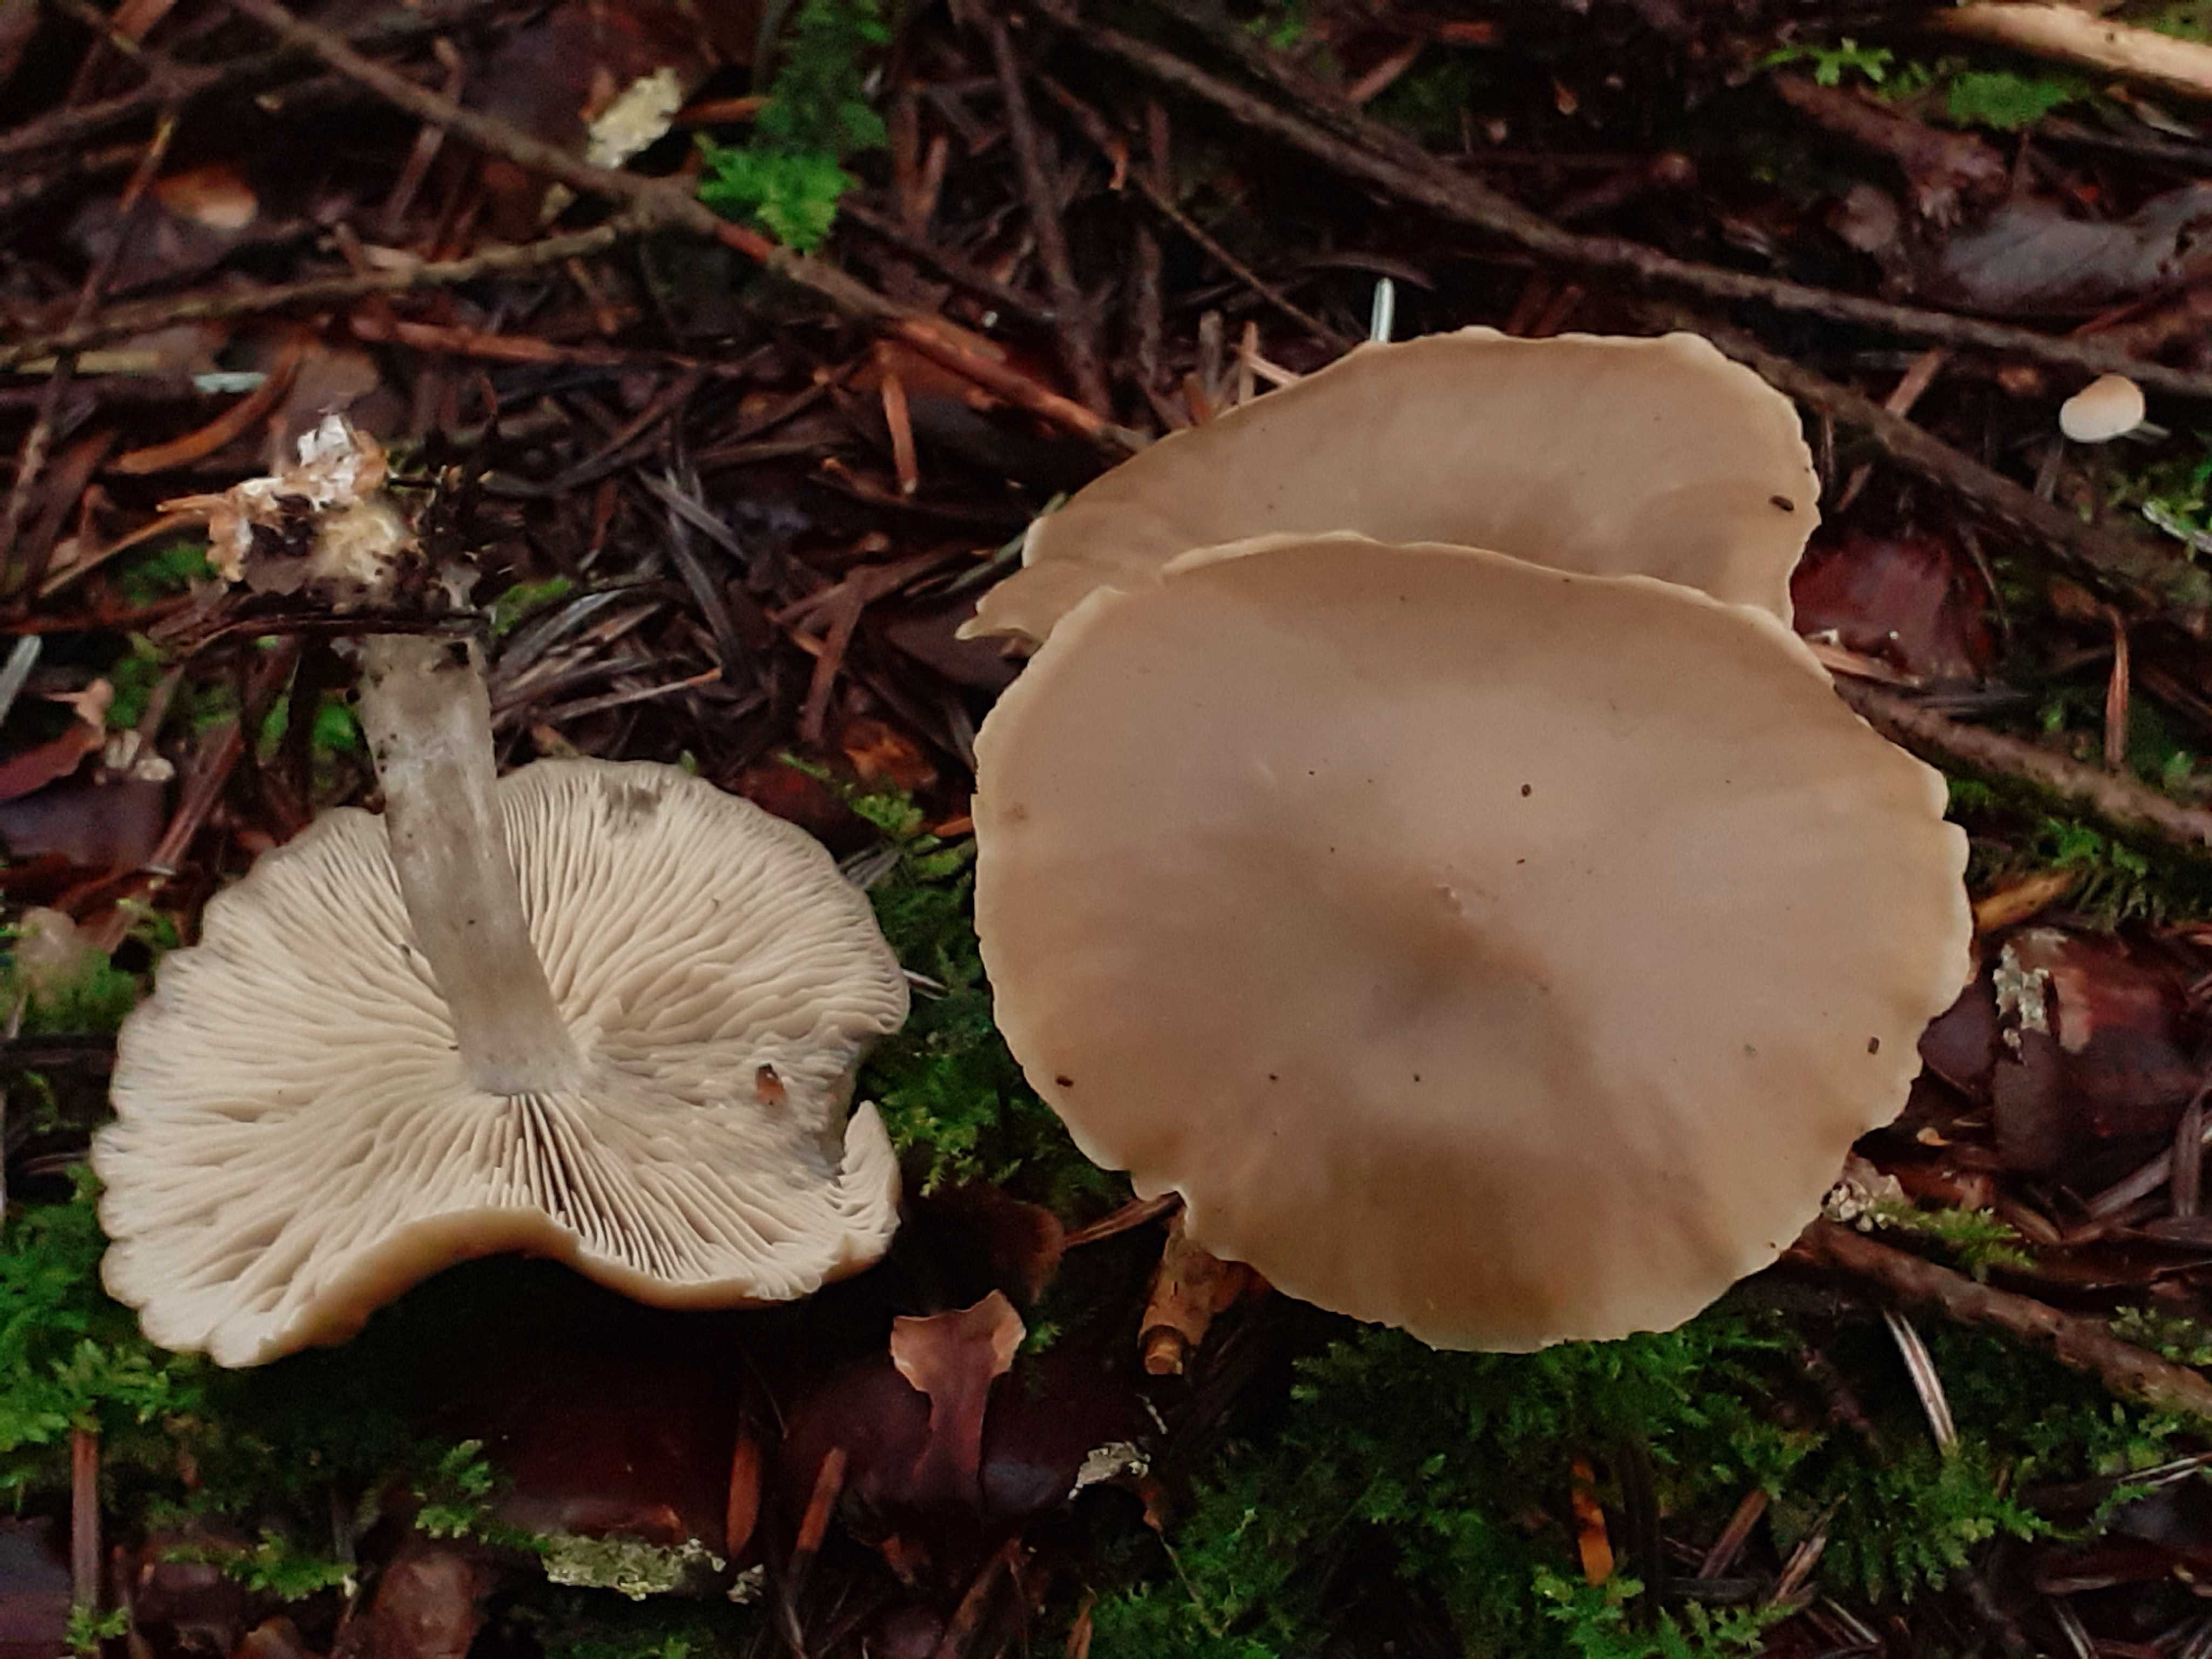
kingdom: Fungi
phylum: Basidiomycota
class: Agaricomycetes
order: Agaricales
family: Lyophyllaceae
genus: Lyophyllum
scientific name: Lyophyllum turcicum
